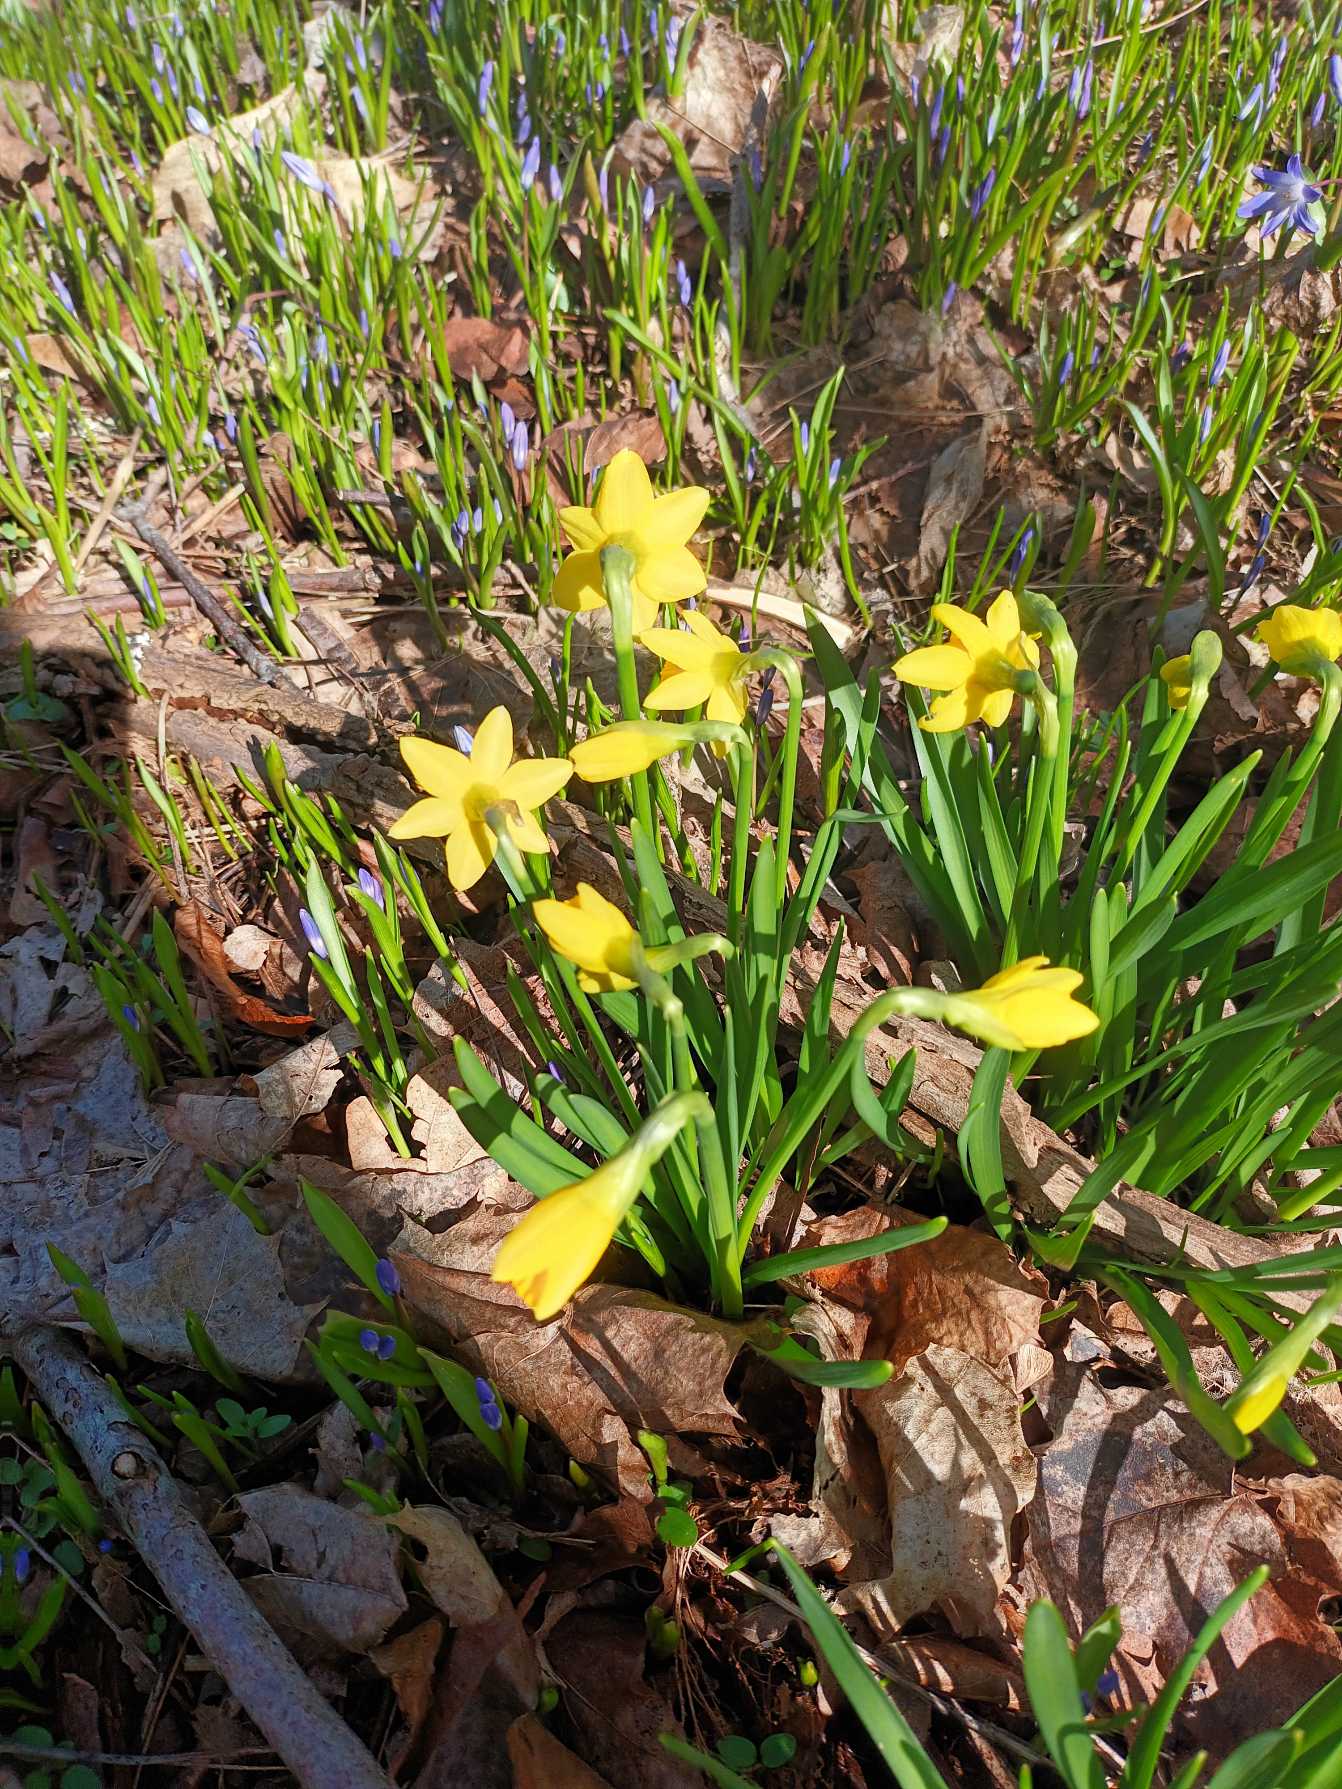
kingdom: Plantae
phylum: Tracheophyta
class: Liliopsida
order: Asparagales
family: Amaryllidaceae
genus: Narcissus
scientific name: Narcissus cyclazetta
